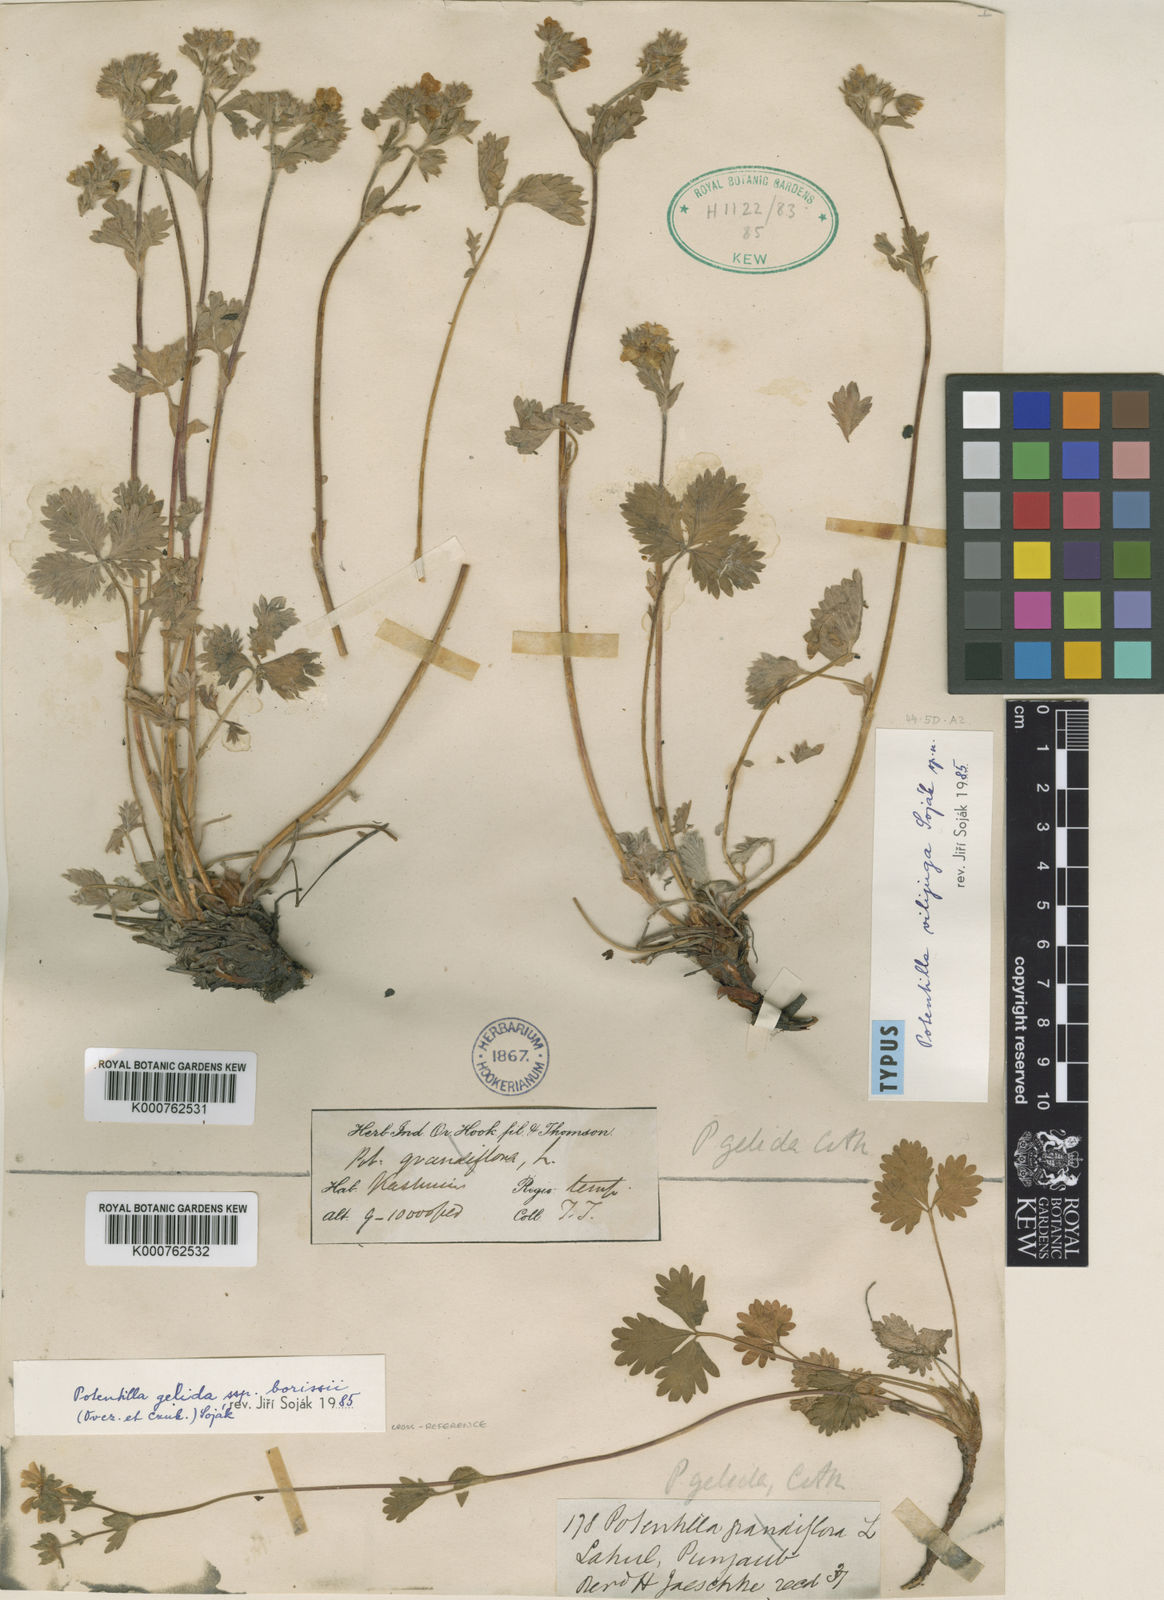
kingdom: Plantae
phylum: Tracheophyta
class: Magnoliopsida
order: Rosales
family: Rosaceae
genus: Potentilla
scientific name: Potentilla
